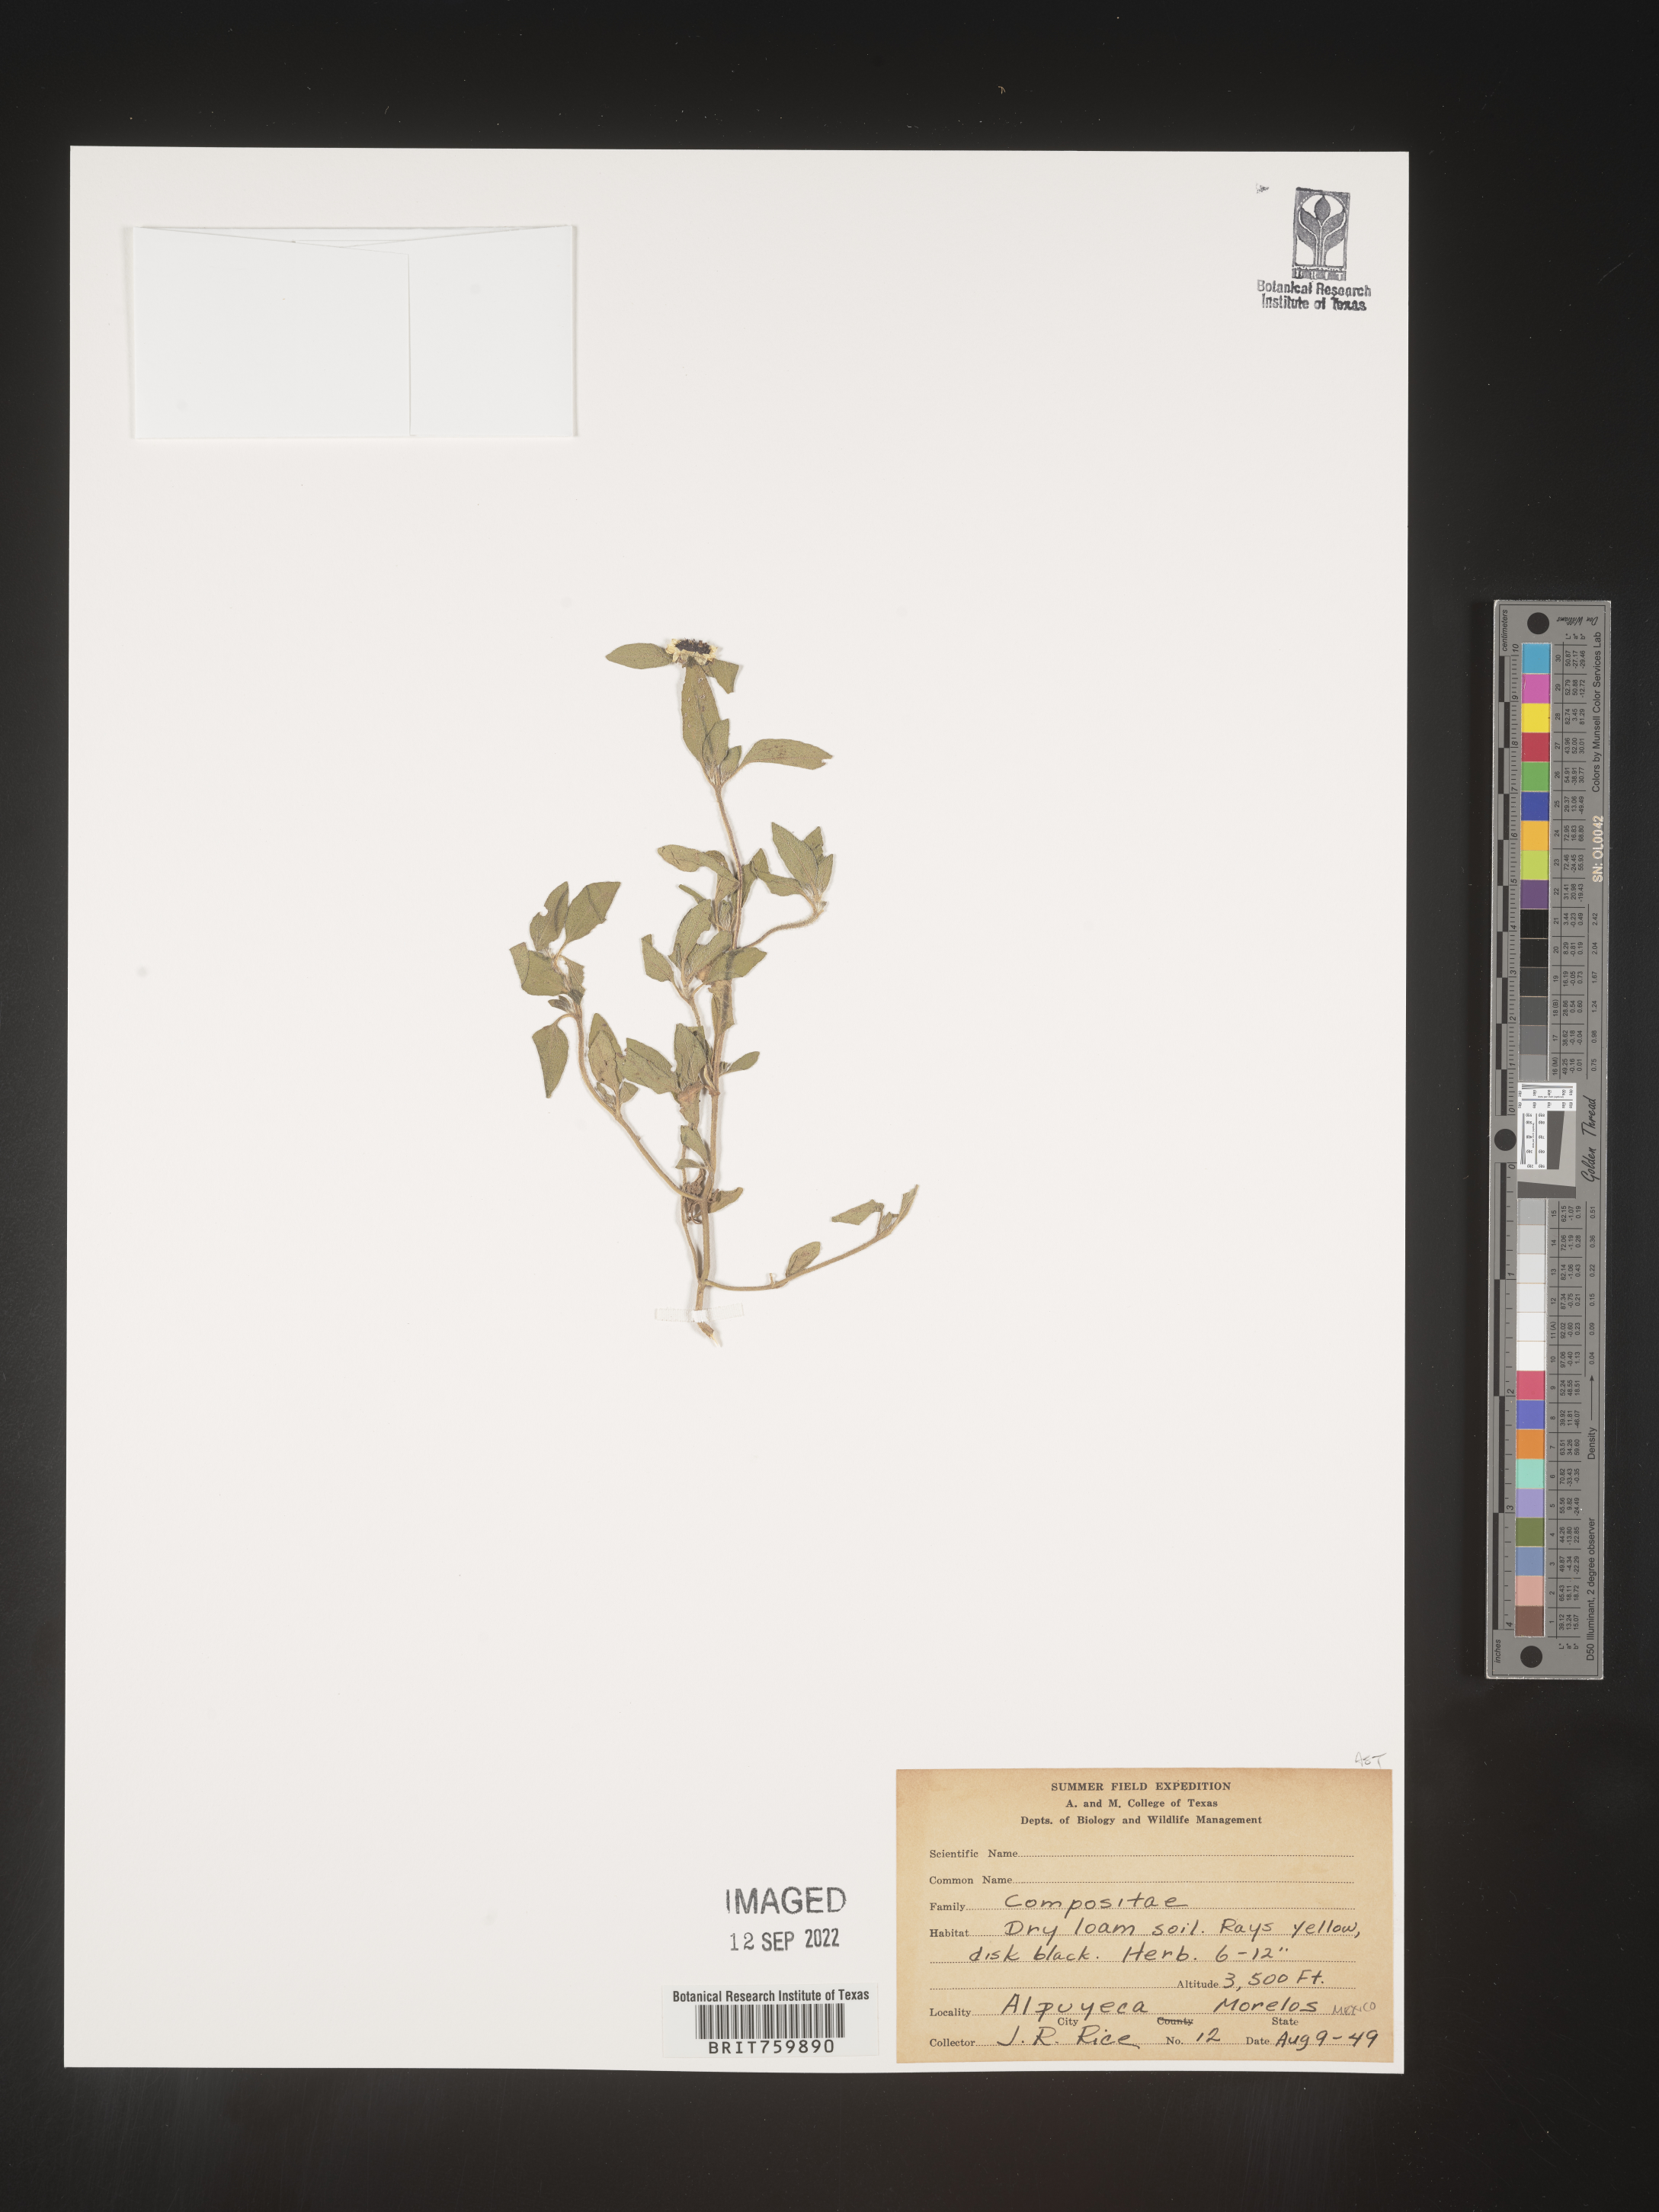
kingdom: Plantae
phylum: Tracheophyta
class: Magnoliopsida
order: Asterales
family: Asteraceae
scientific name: Asteraceae
